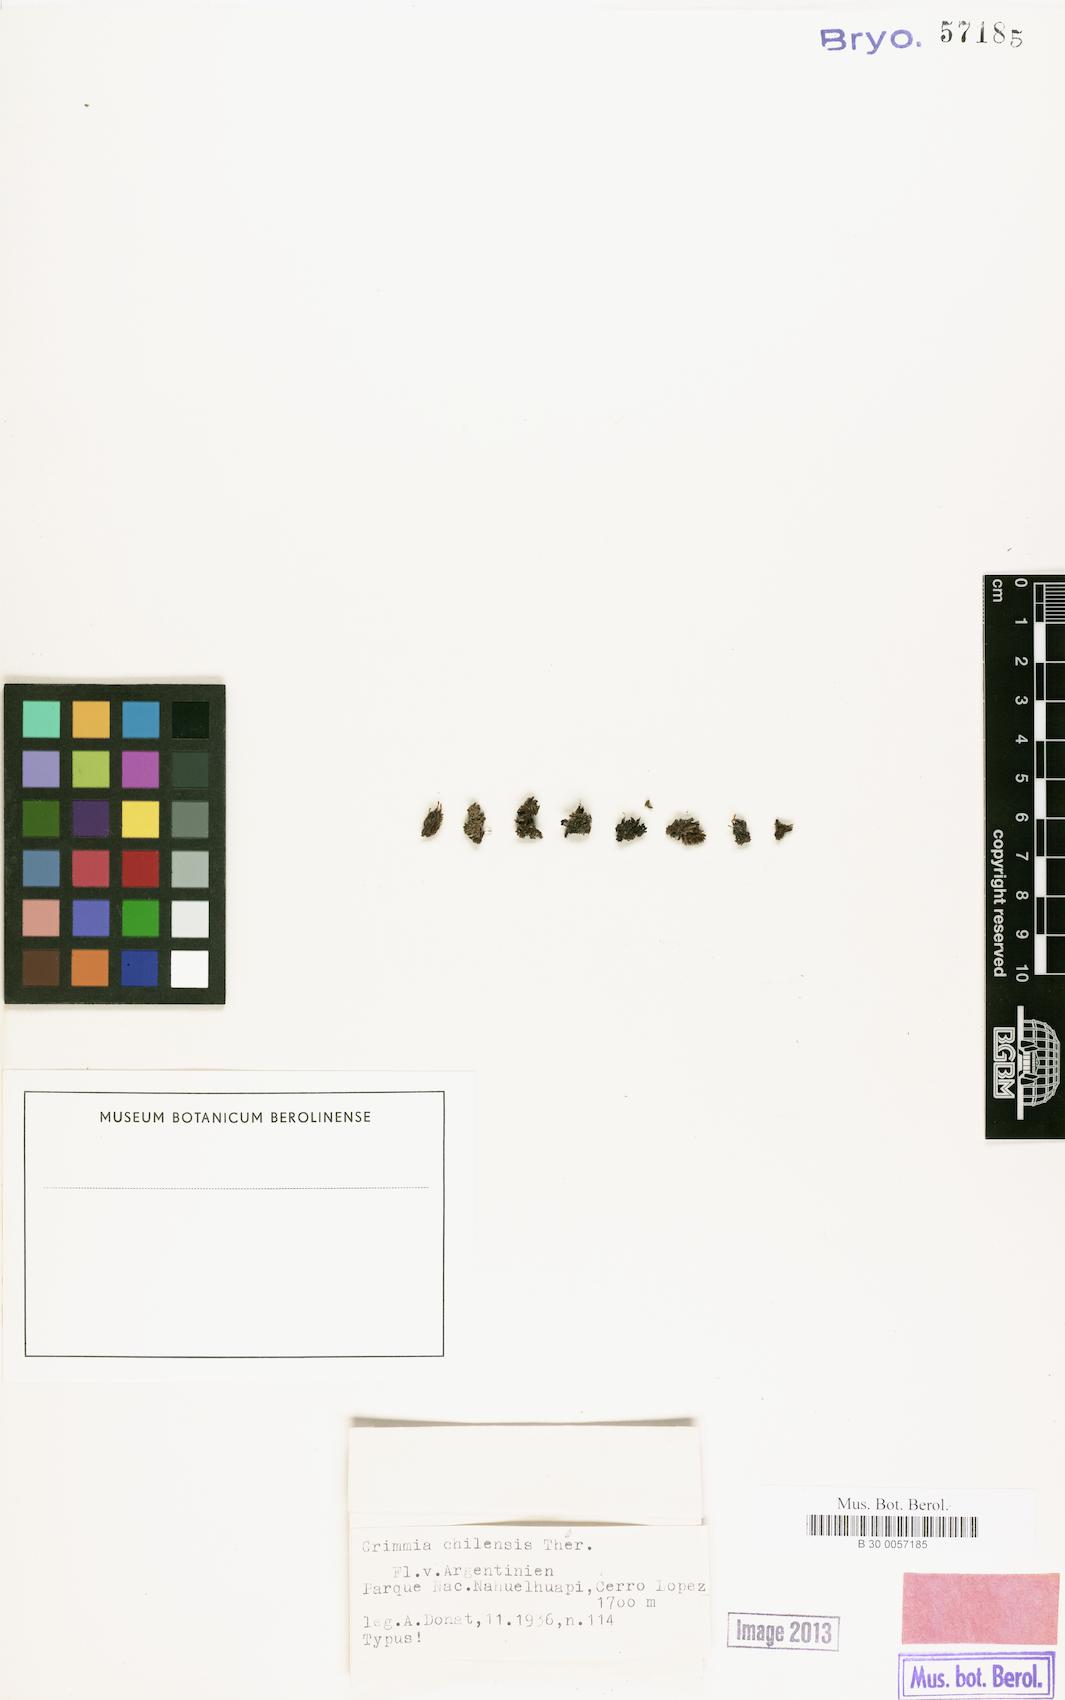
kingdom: Plantae
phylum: Bryophyta
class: Bryopsida
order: Grimmiales
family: Grimmiaceae
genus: Grimmia
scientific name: Grimmia navicularis
